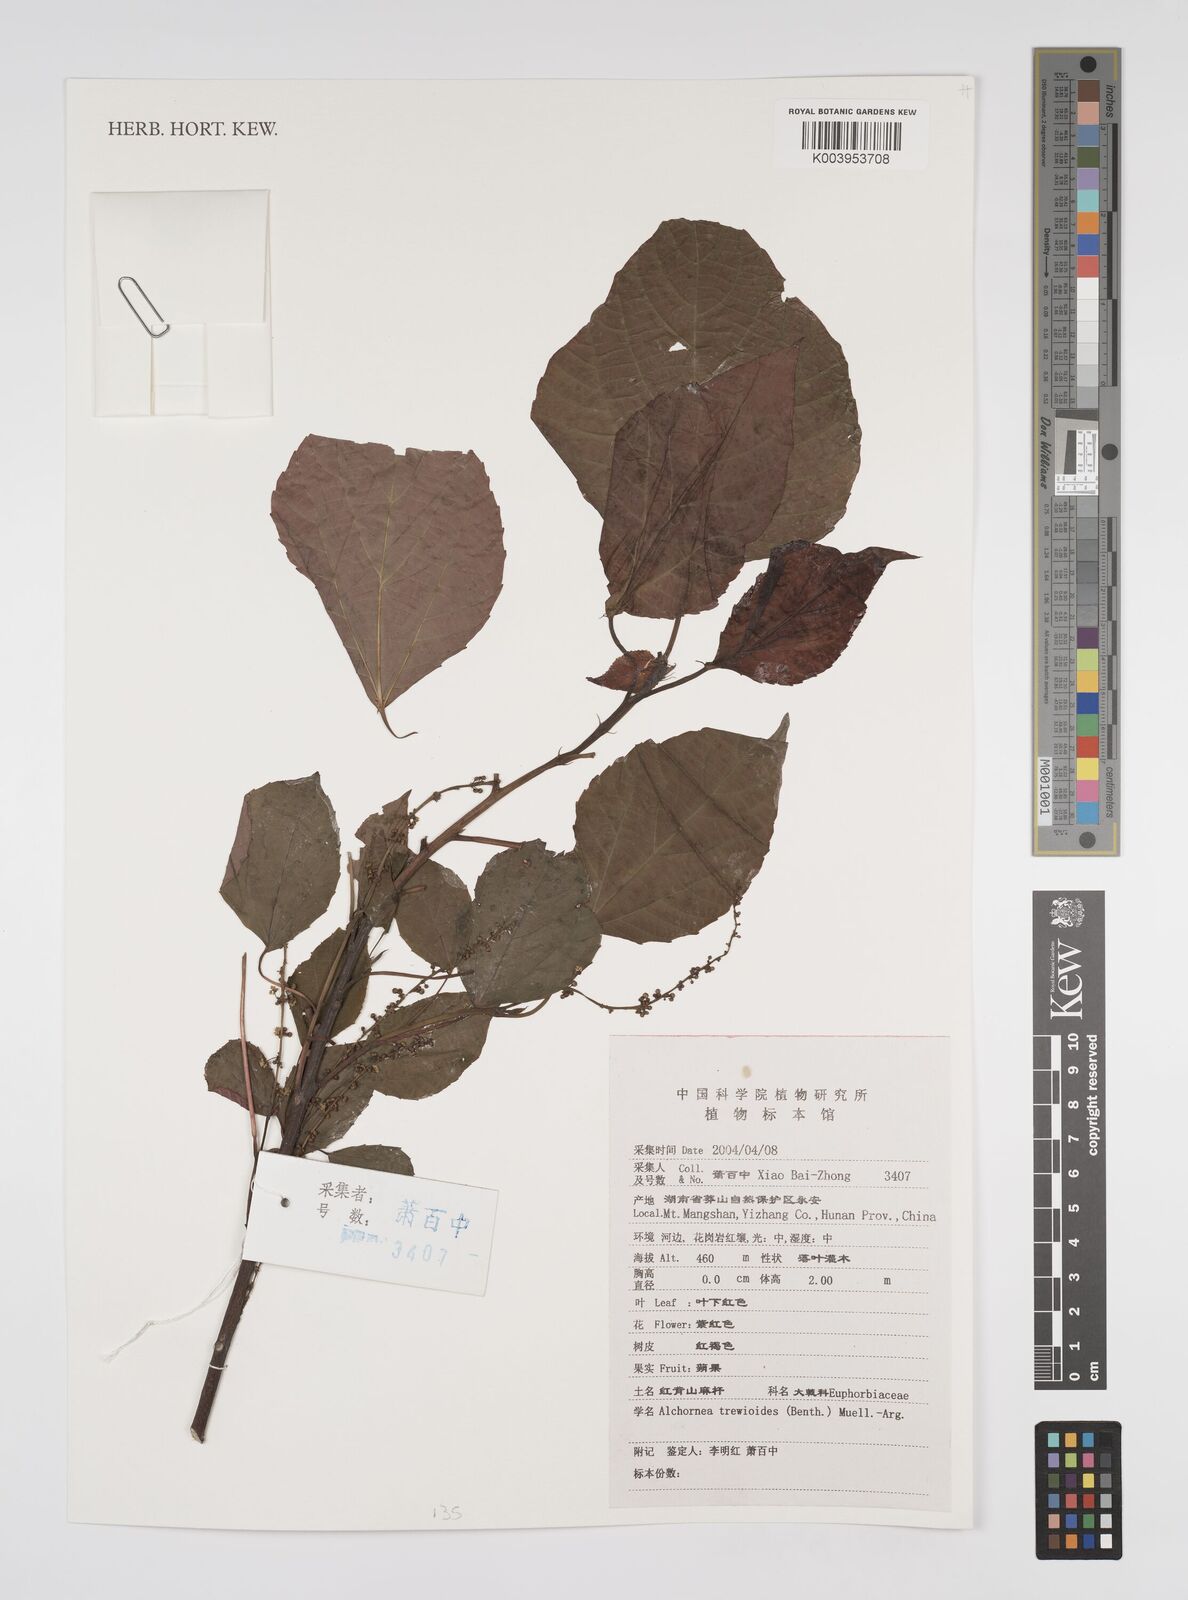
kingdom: Plantae
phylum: Tracheophyta
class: Magnoliopsida
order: Malpighiales
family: Euphorbiaceae
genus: Alchornea
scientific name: Alchornea trewioides
